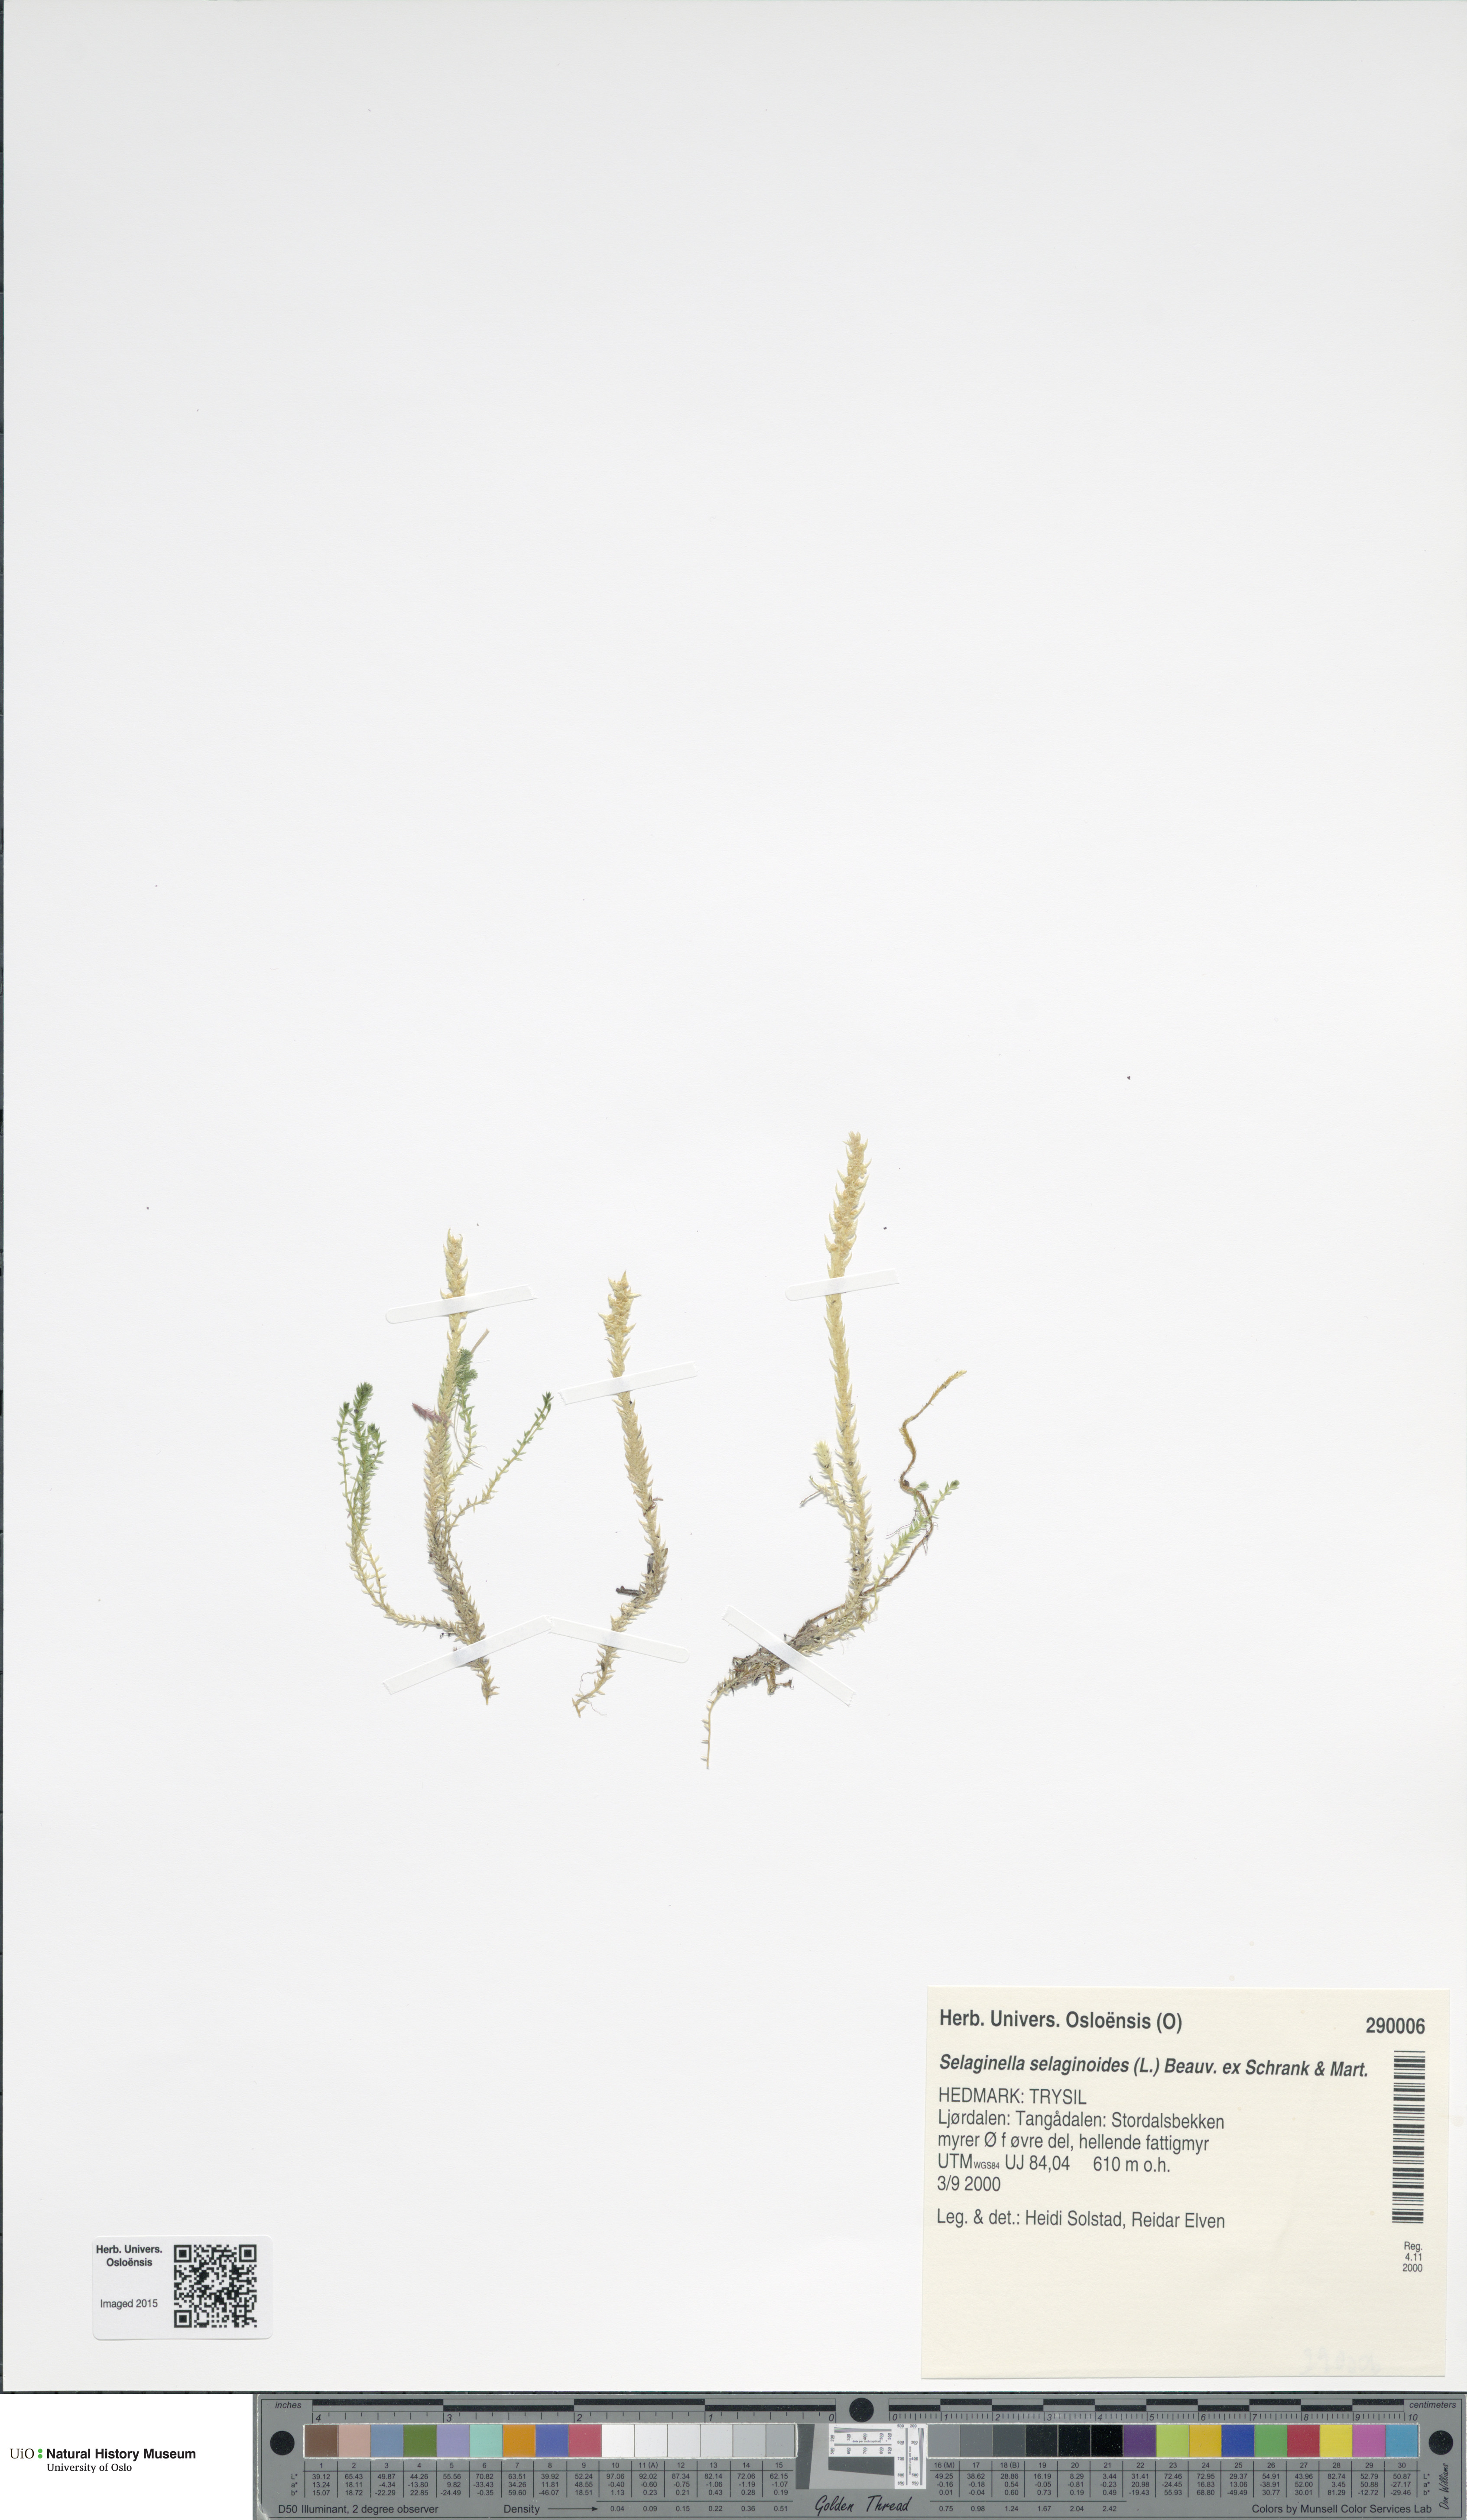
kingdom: Plantae
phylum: Tracheophyta
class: Lycopodiopsida
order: Selaginellales
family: Selaginellaceae
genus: Selaginella
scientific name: Selaginella selaginoides
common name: Prickly mountain-moss
